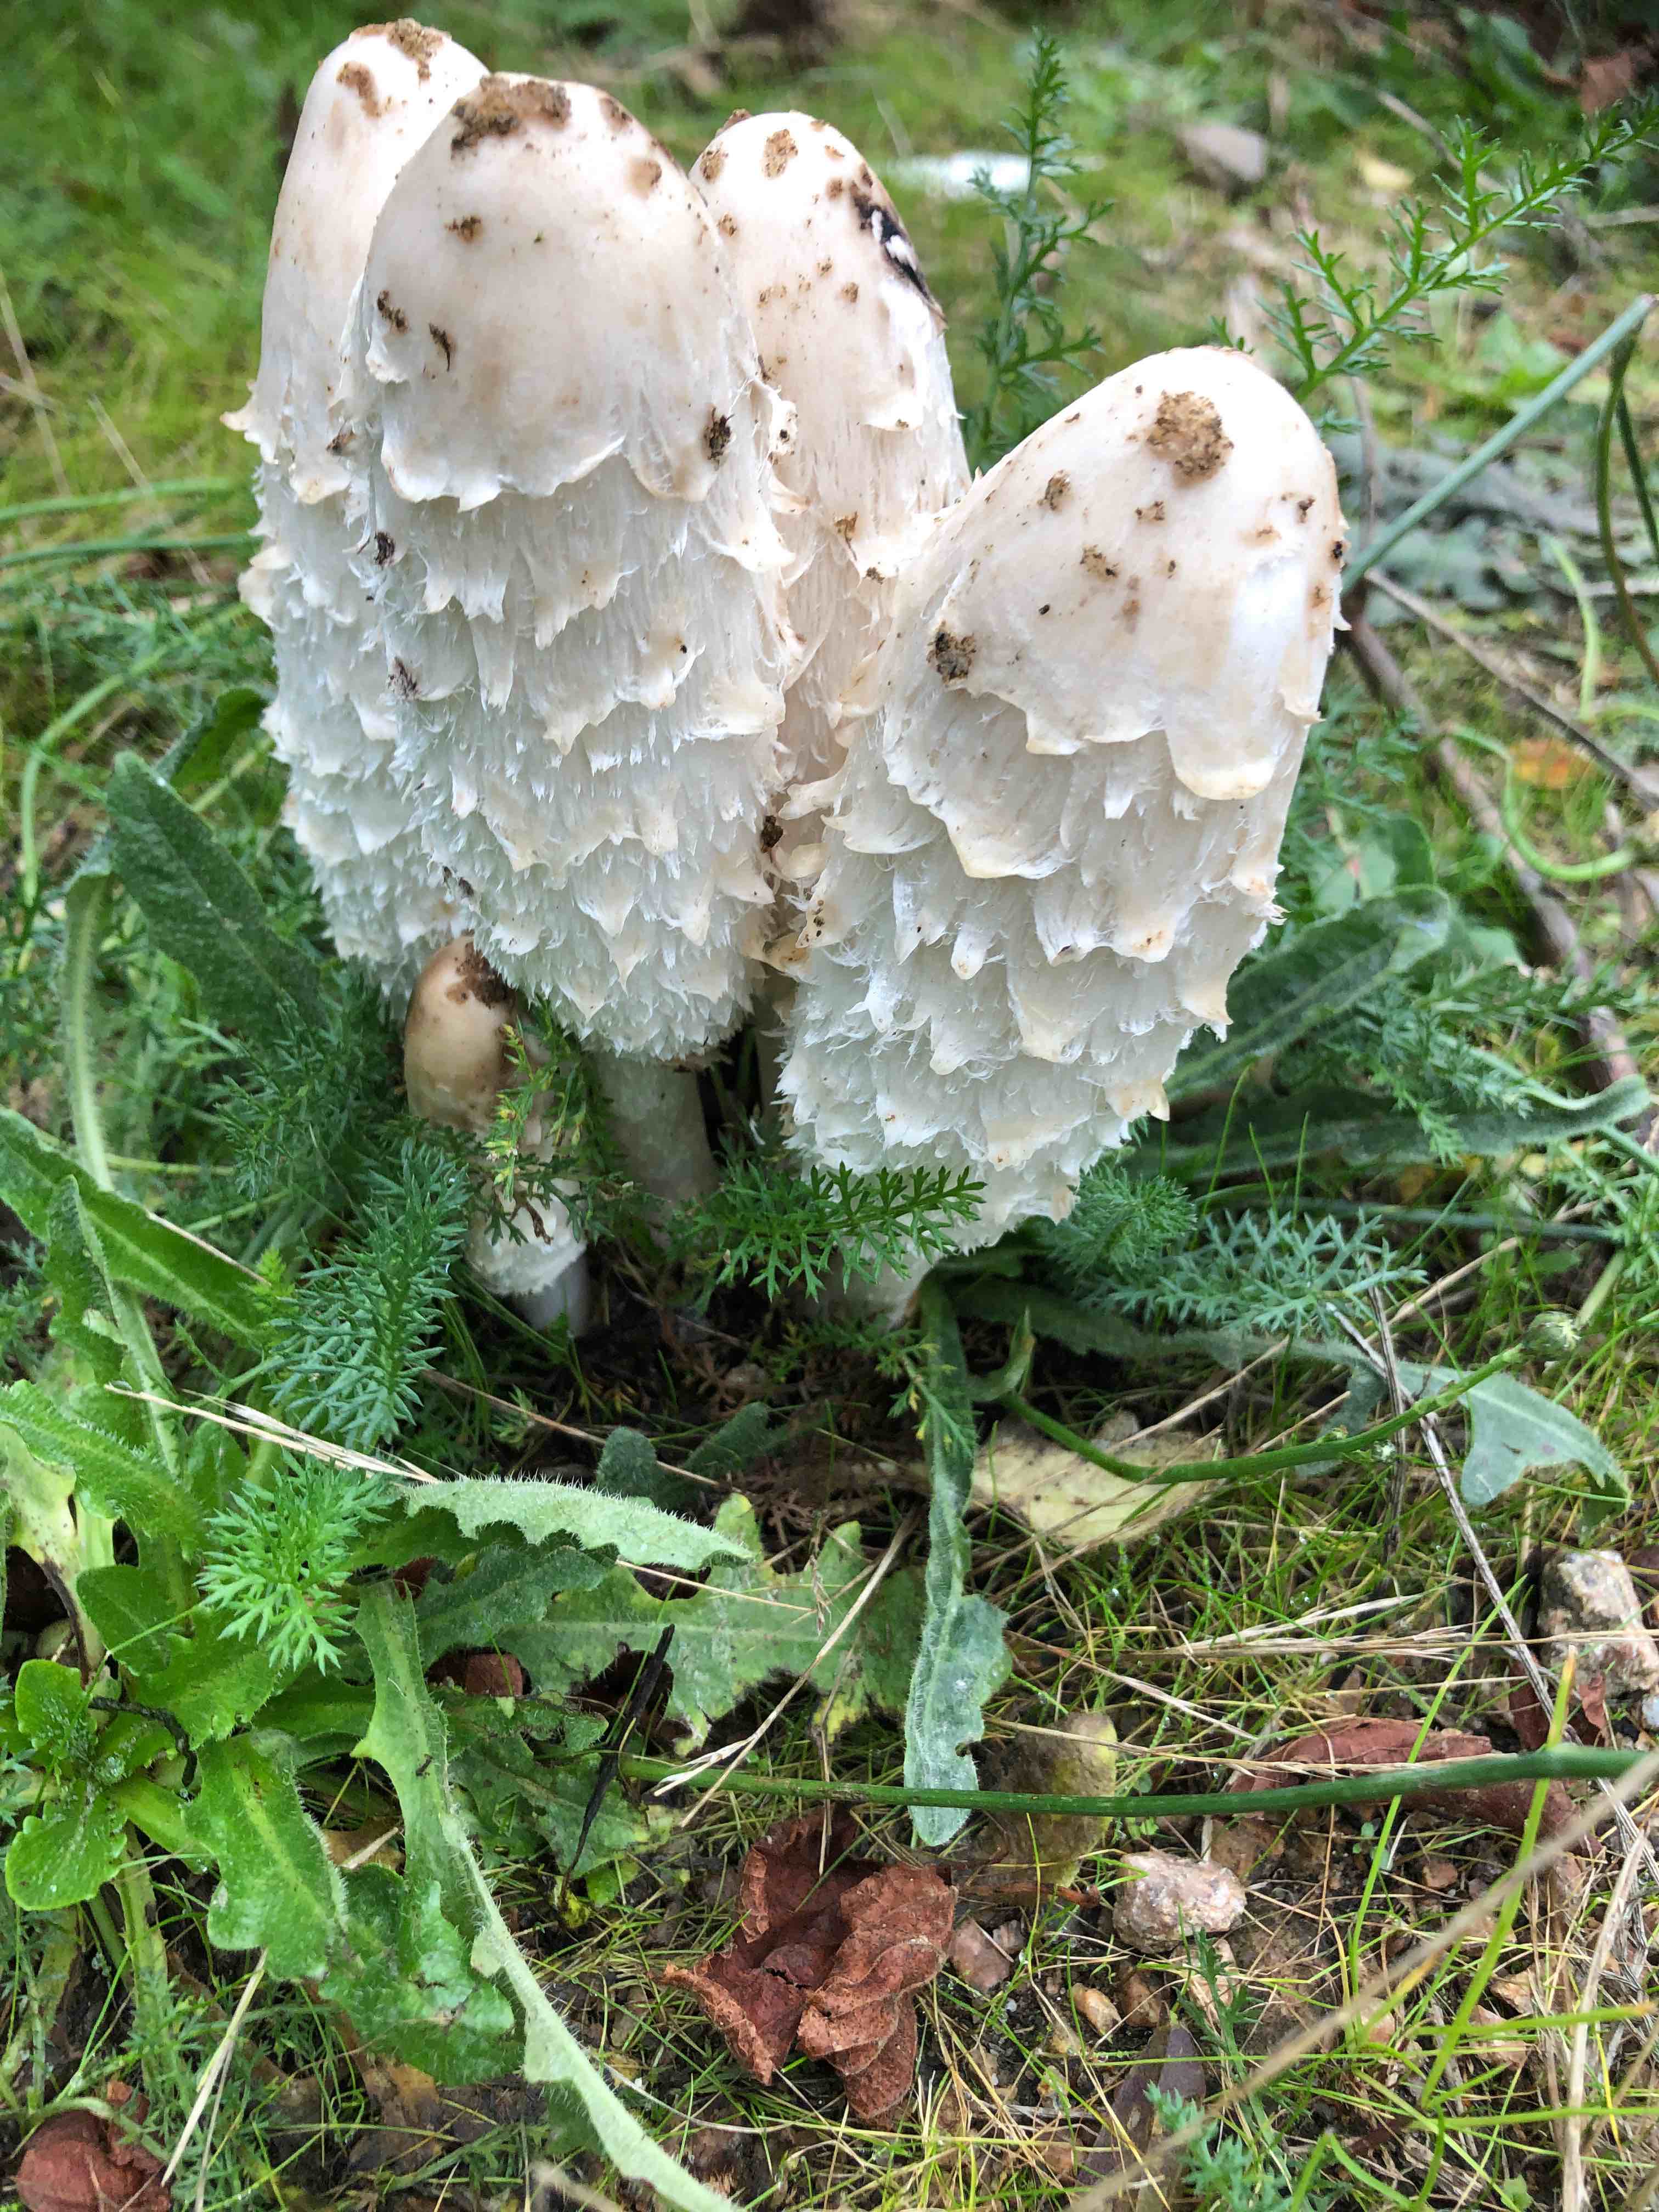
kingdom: Fungi
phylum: Basidiomycota
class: Agaricomycetes
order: Agaricales
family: Agaricaceae
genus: Coprinus
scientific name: Coprinus comatus
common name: stor parykhat
